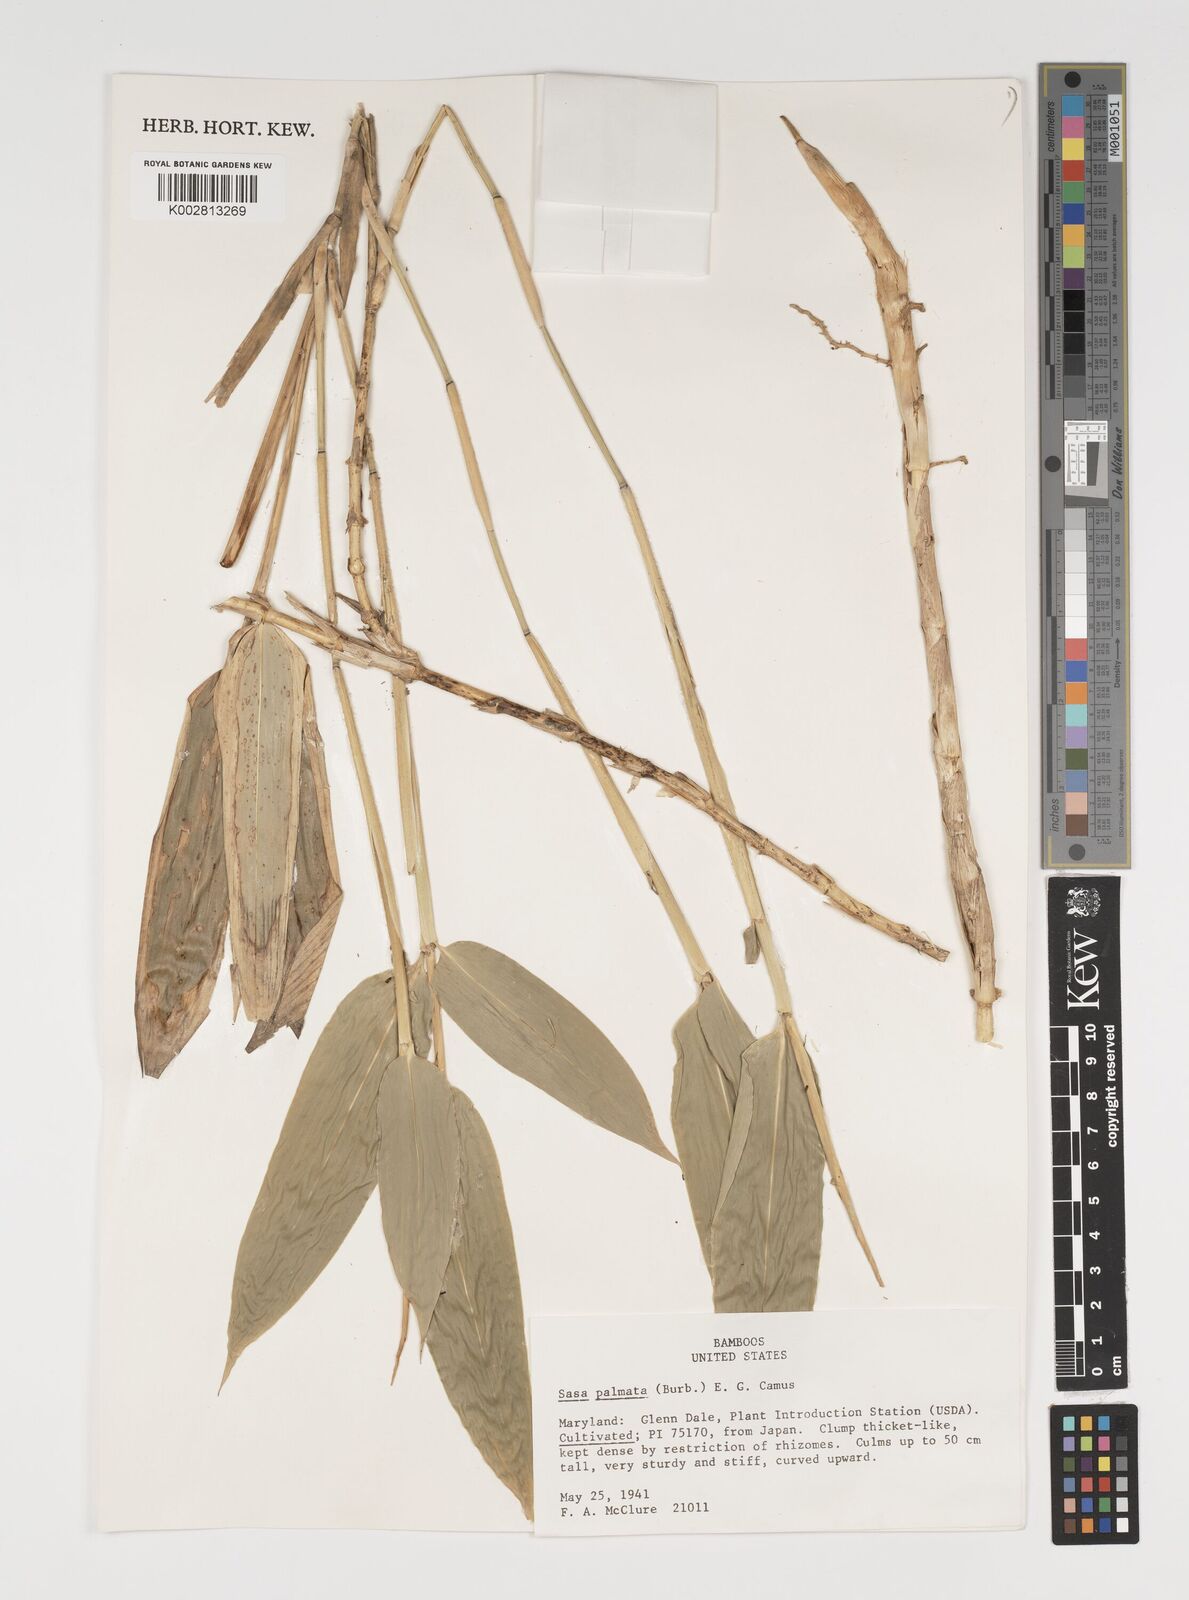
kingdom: Plantae
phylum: Tracheophyta
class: Liliopsida
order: Poales
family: Poaceae
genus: Sasa
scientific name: Sasa palmata
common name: Broad-leaved bamboo
